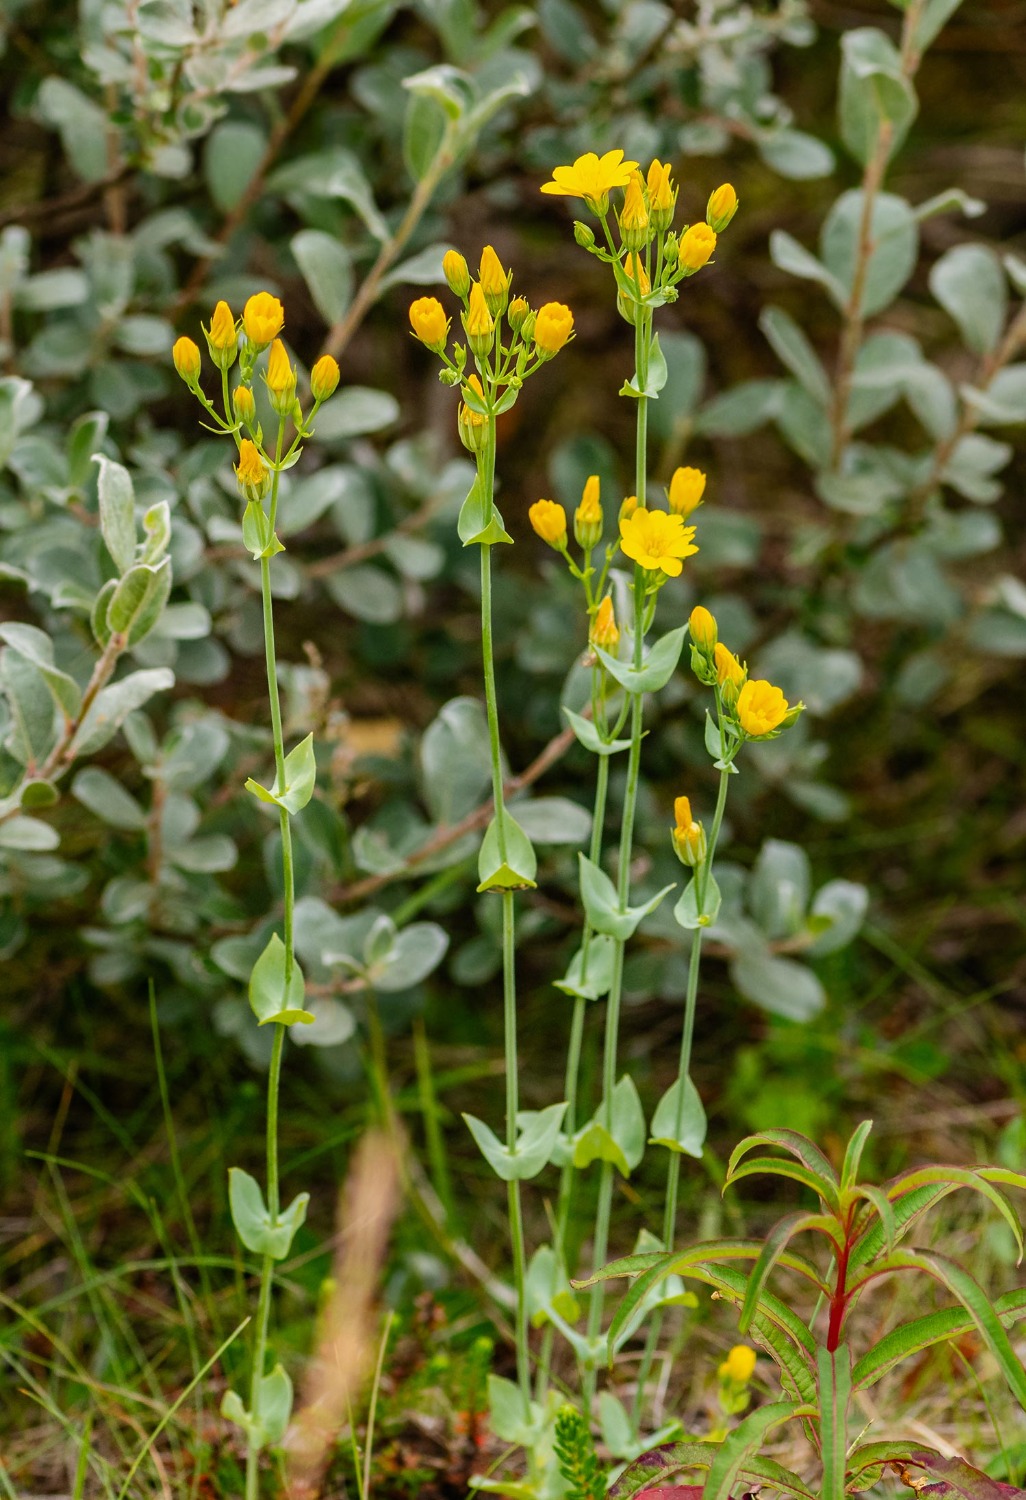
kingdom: Plantae
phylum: Tracheophyta
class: Magnoliopsida
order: Gentianales
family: Gentianaceae
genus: Blackstonia
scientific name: Blackstonia perfoliata
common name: Almindelig gyldenurt
